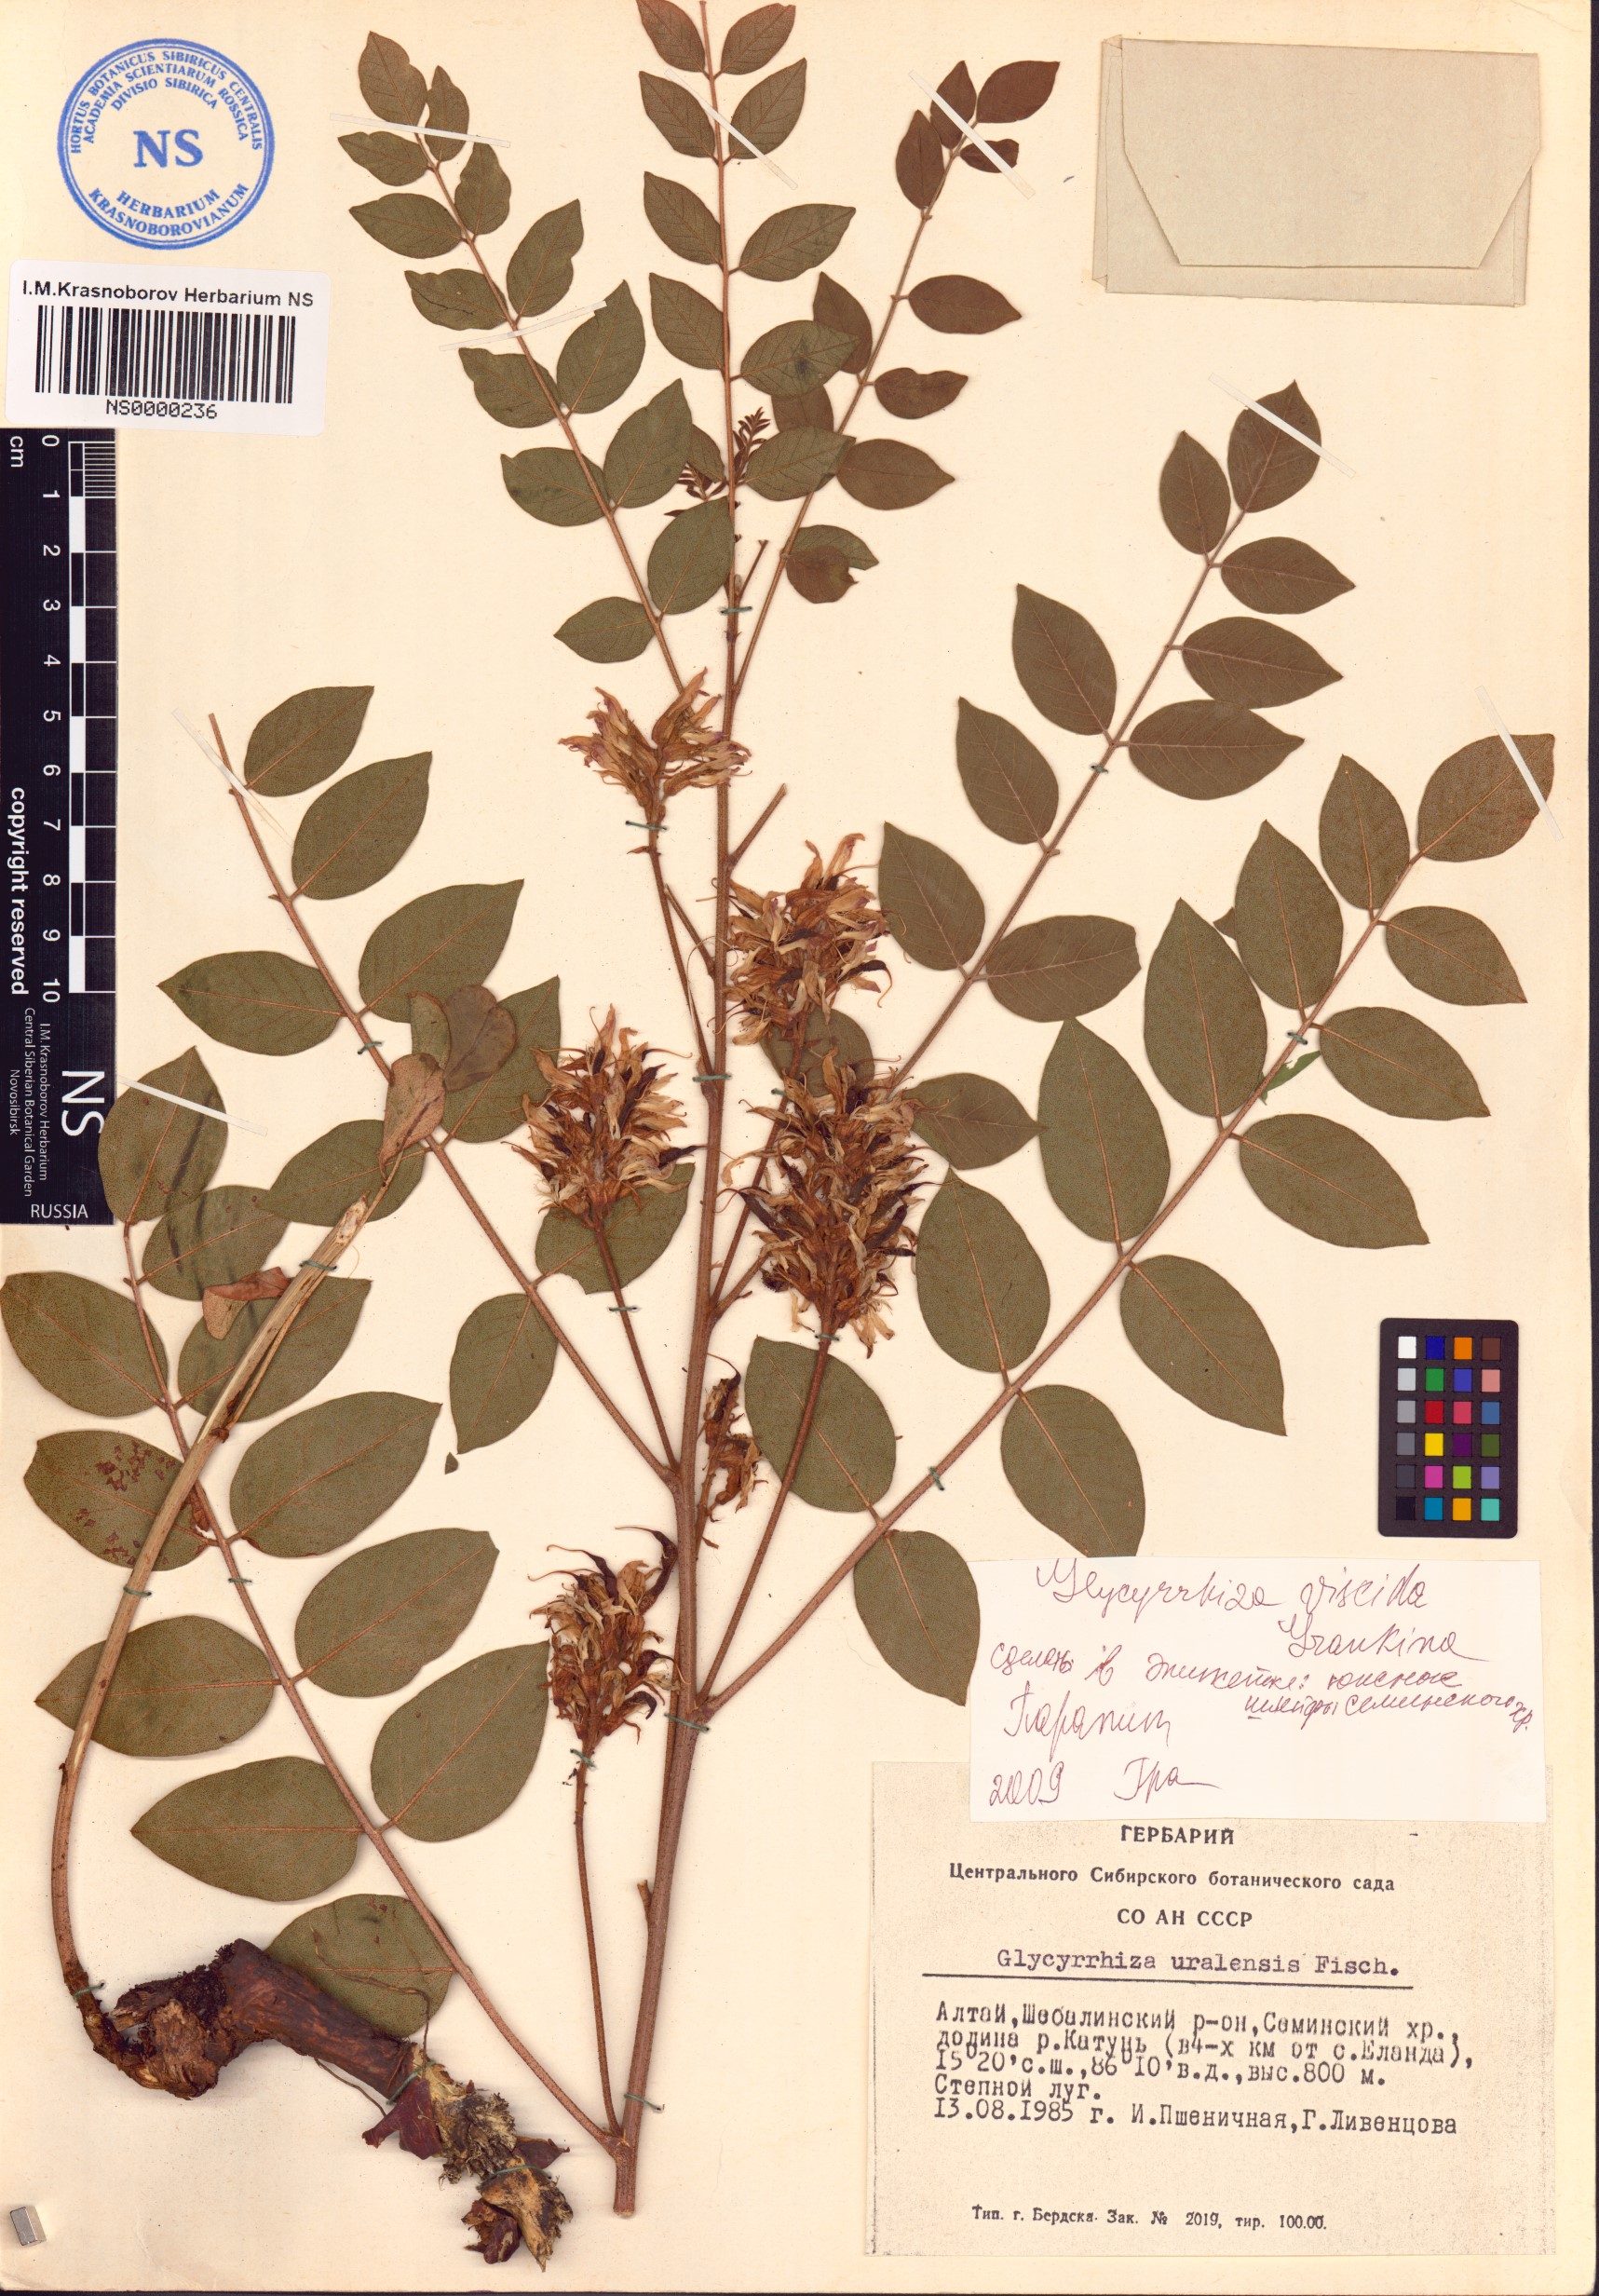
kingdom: Plantae
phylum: Tracheophyta
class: Magnoliopsida
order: Fabales
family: Fabaceae
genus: Glycyrrhiza
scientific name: Glycyrrhiza uralensis
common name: Chinese licorice
